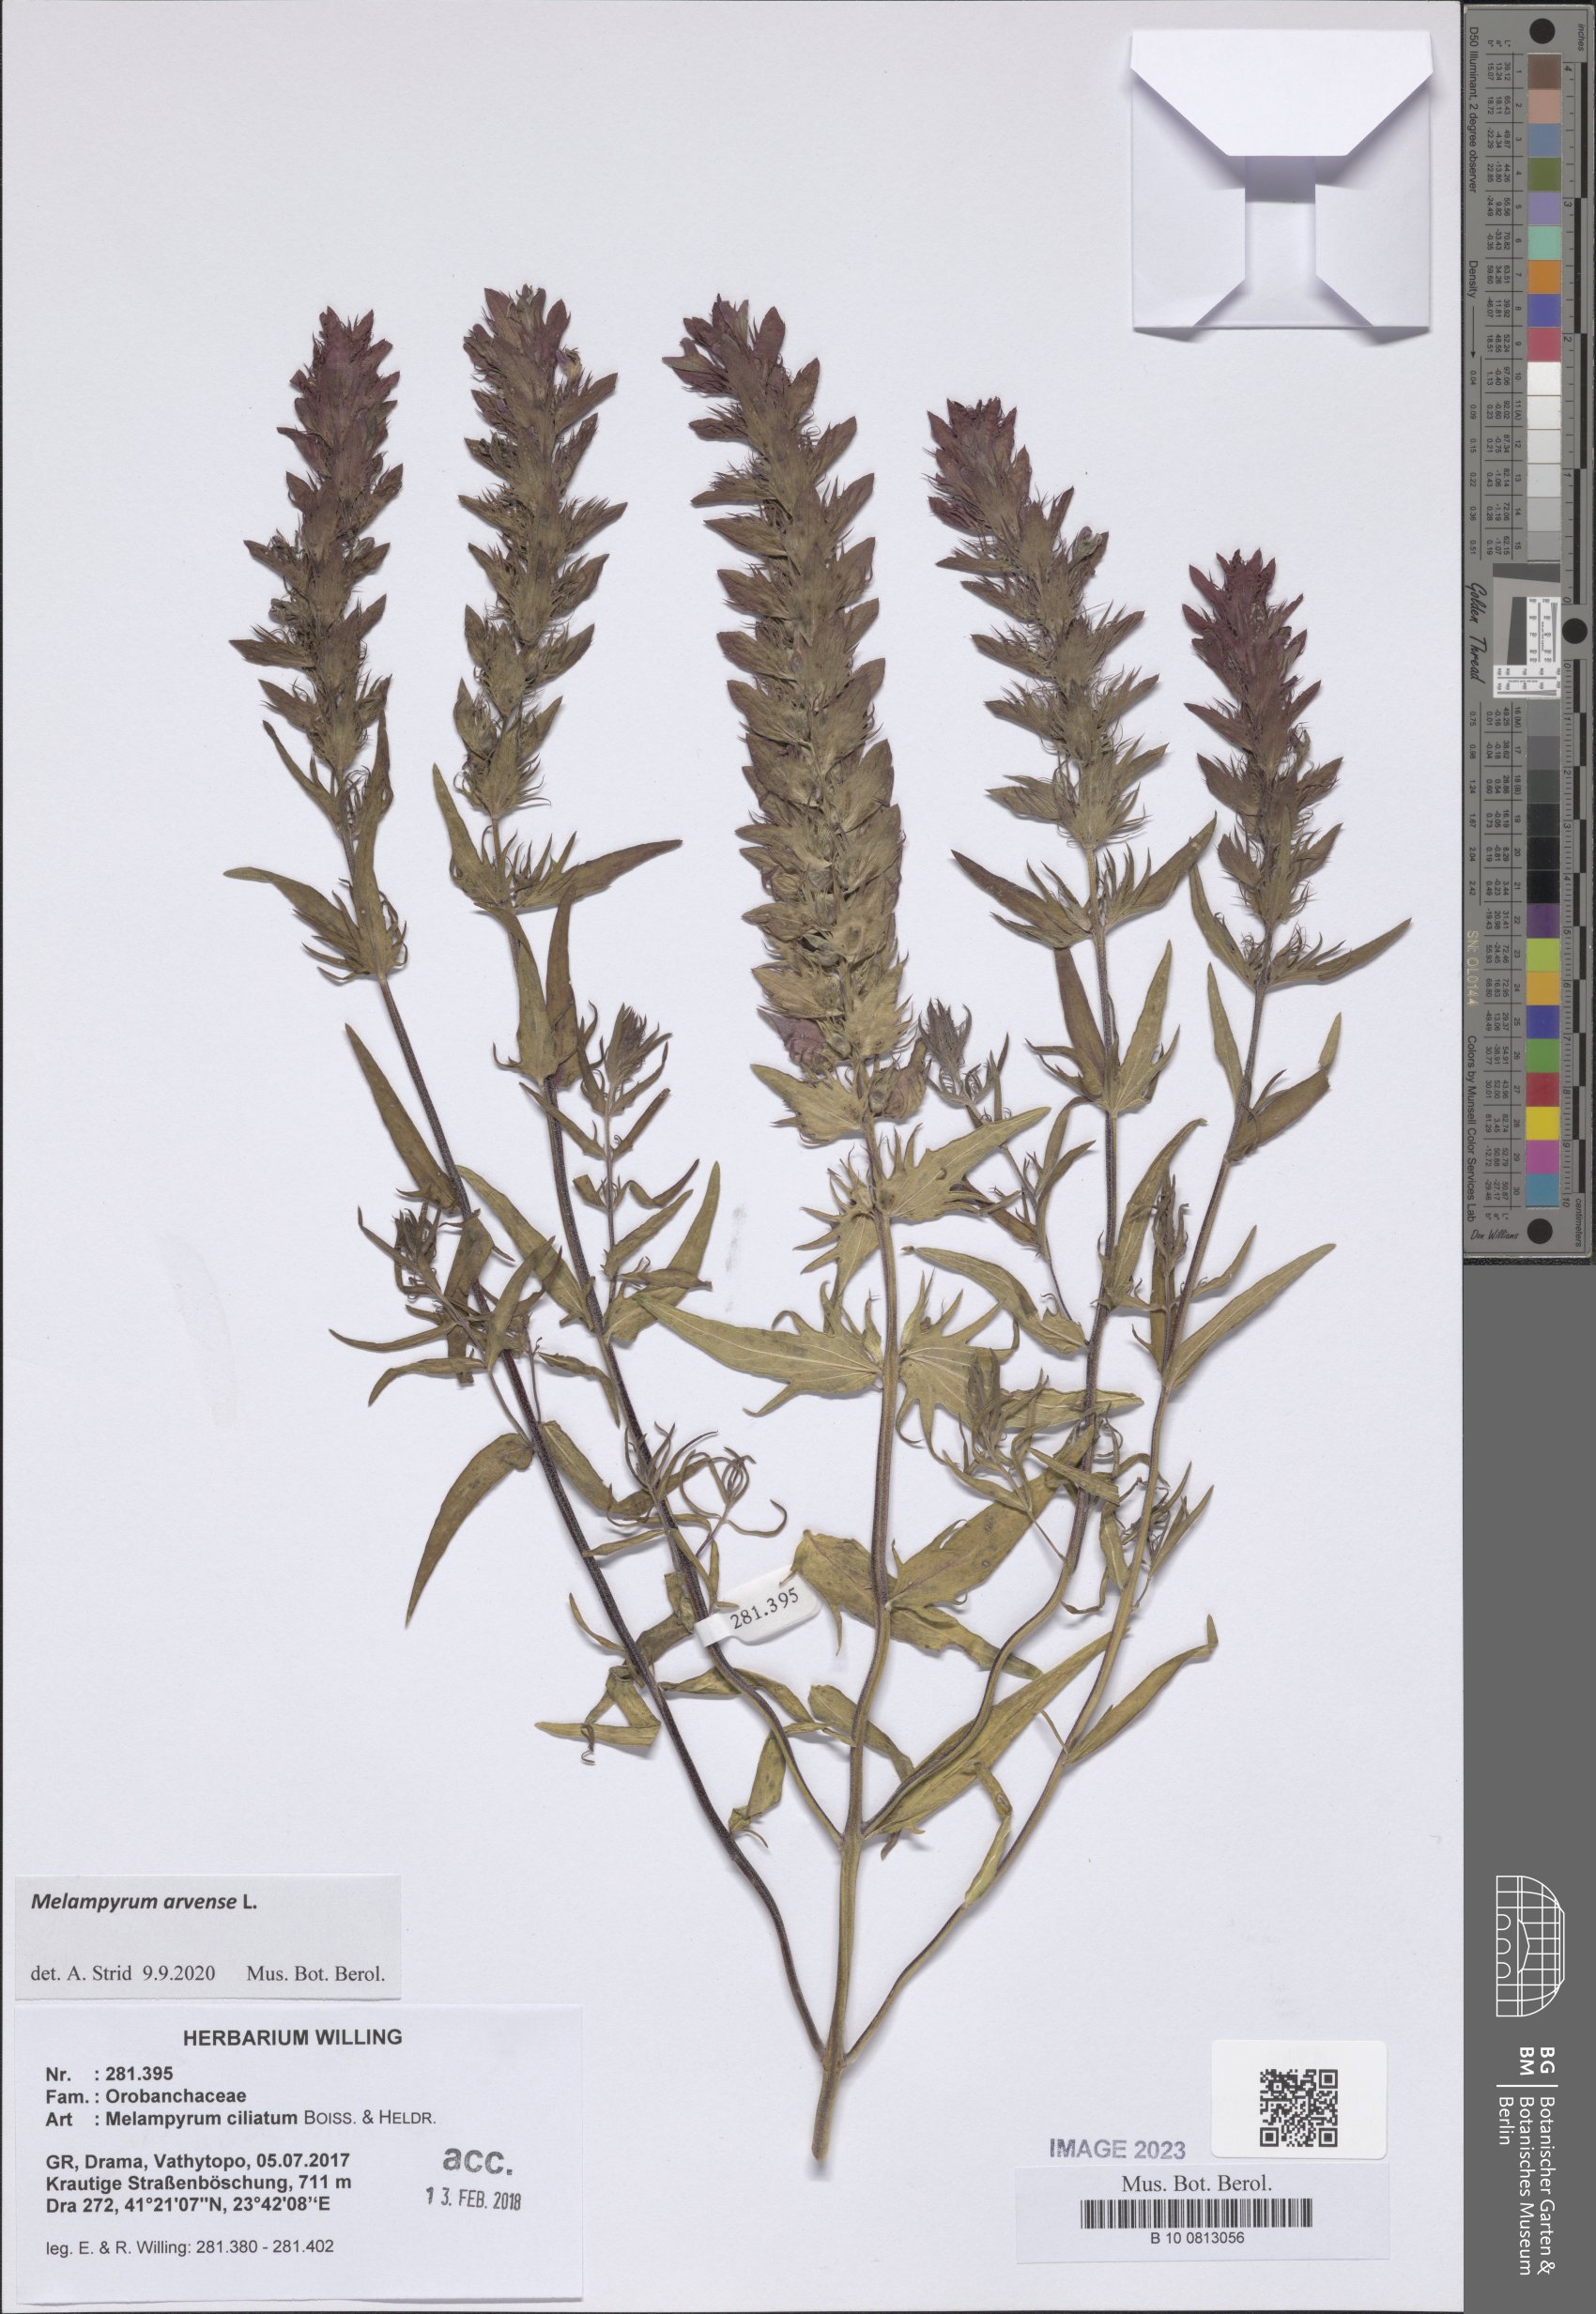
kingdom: Plantae
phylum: Tracheophyta
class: Magnoliopsida
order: Lamiales
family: Orobanchaceae
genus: Melampyrum
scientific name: Melampyrum arvense
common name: Field cow-wheat
